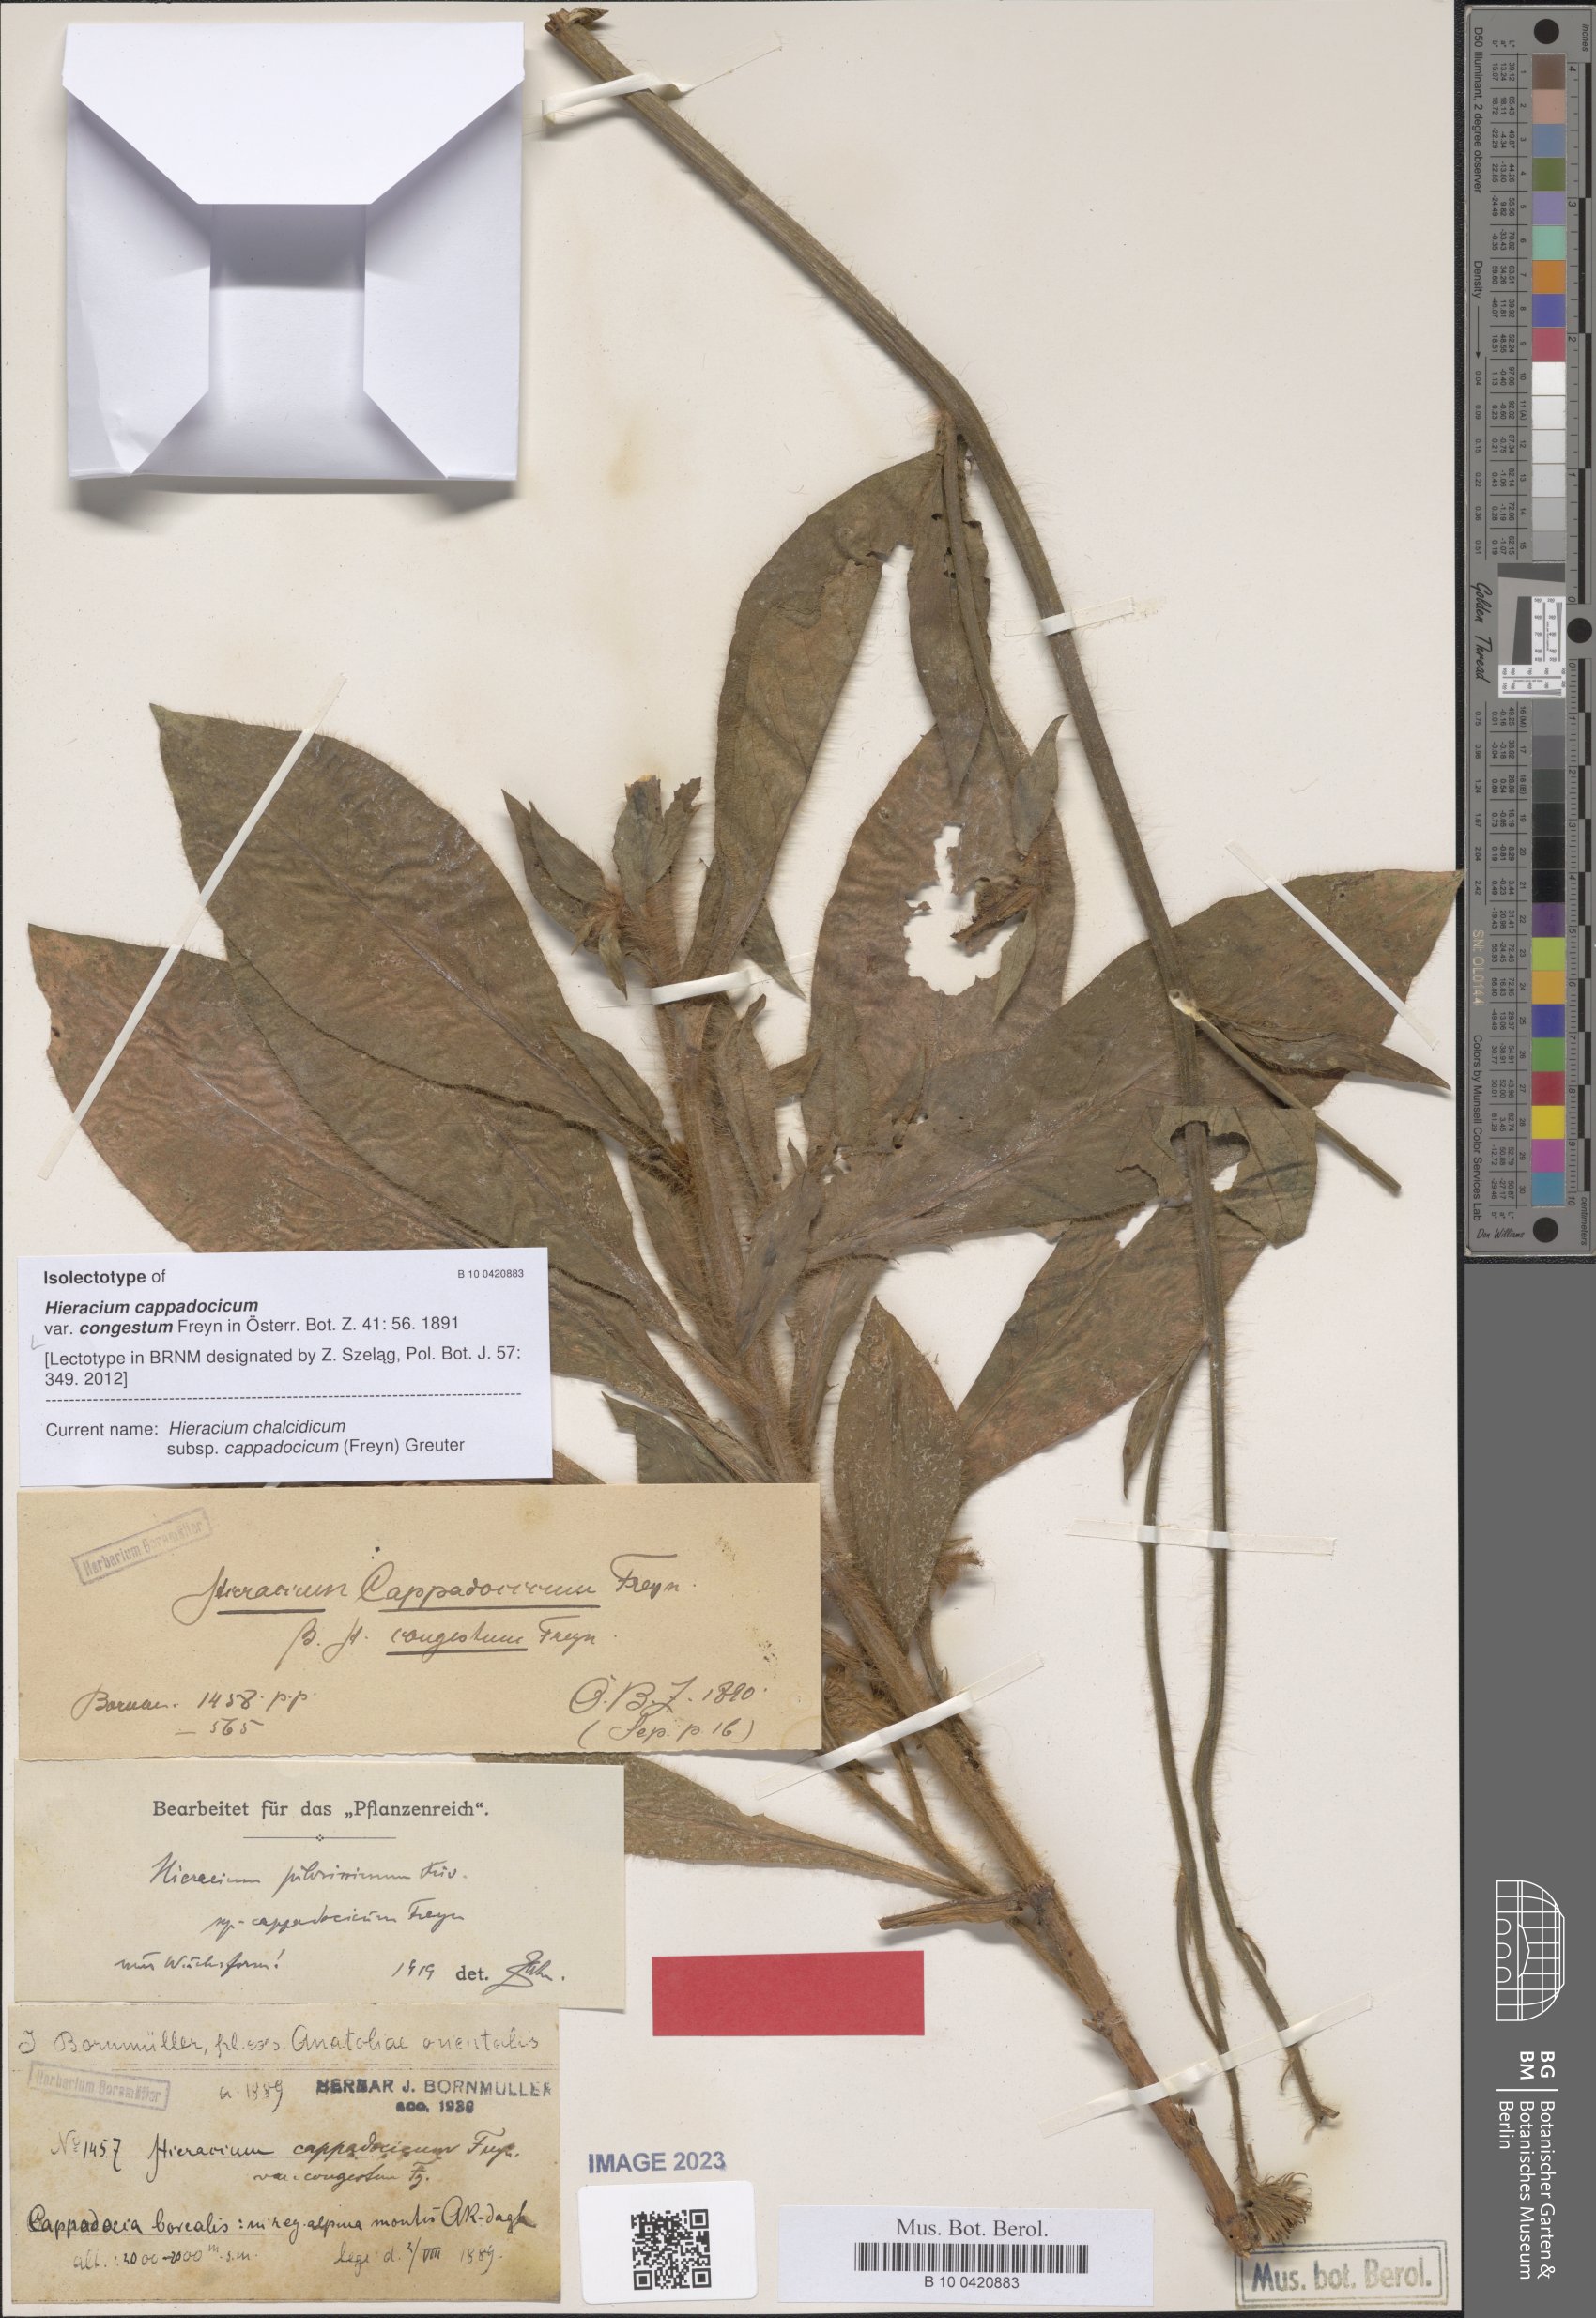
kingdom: Plantae
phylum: Tracheophyta
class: Magnoliopsida
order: Asterales
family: Asteraceae
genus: Hieracium
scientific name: Hieracium chalcidicum
